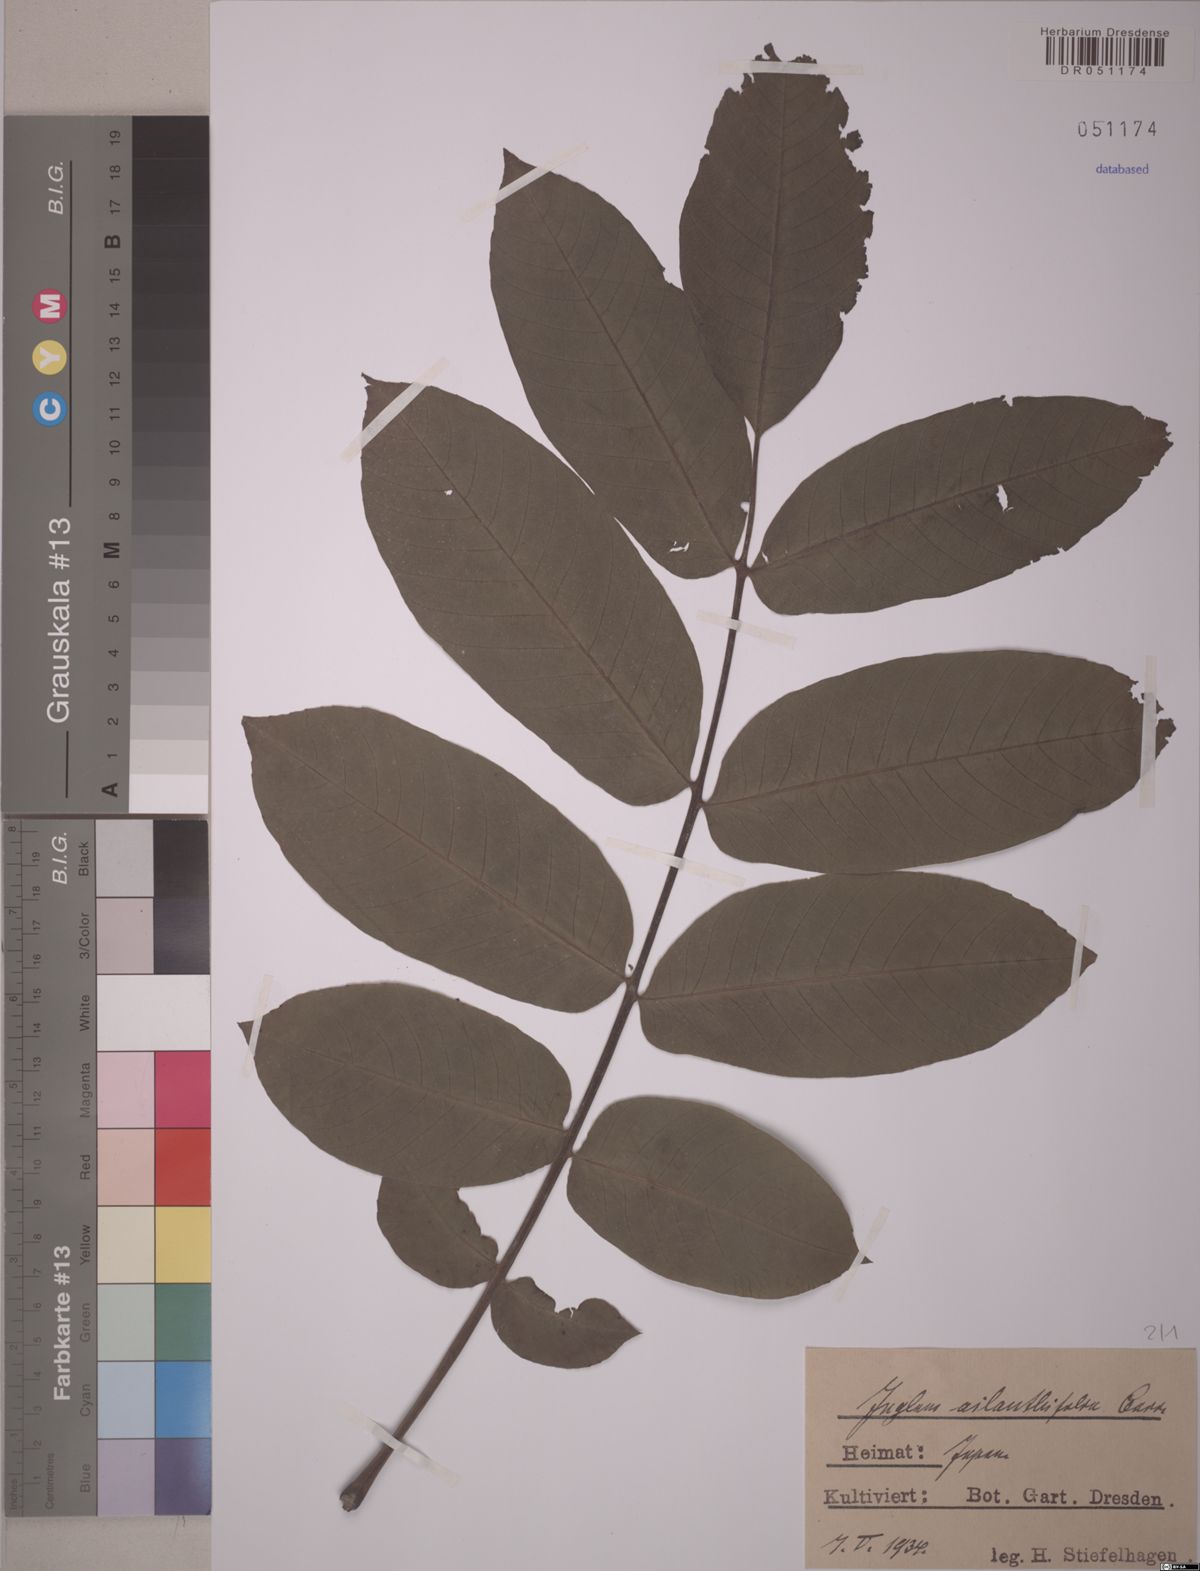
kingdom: Plantae
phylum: Tracheophyta
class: Magnoliopsida
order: Fagales
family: Juglandaceae
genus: Juglans
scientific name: Juglans ailantifolia
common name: Japanese walnut
